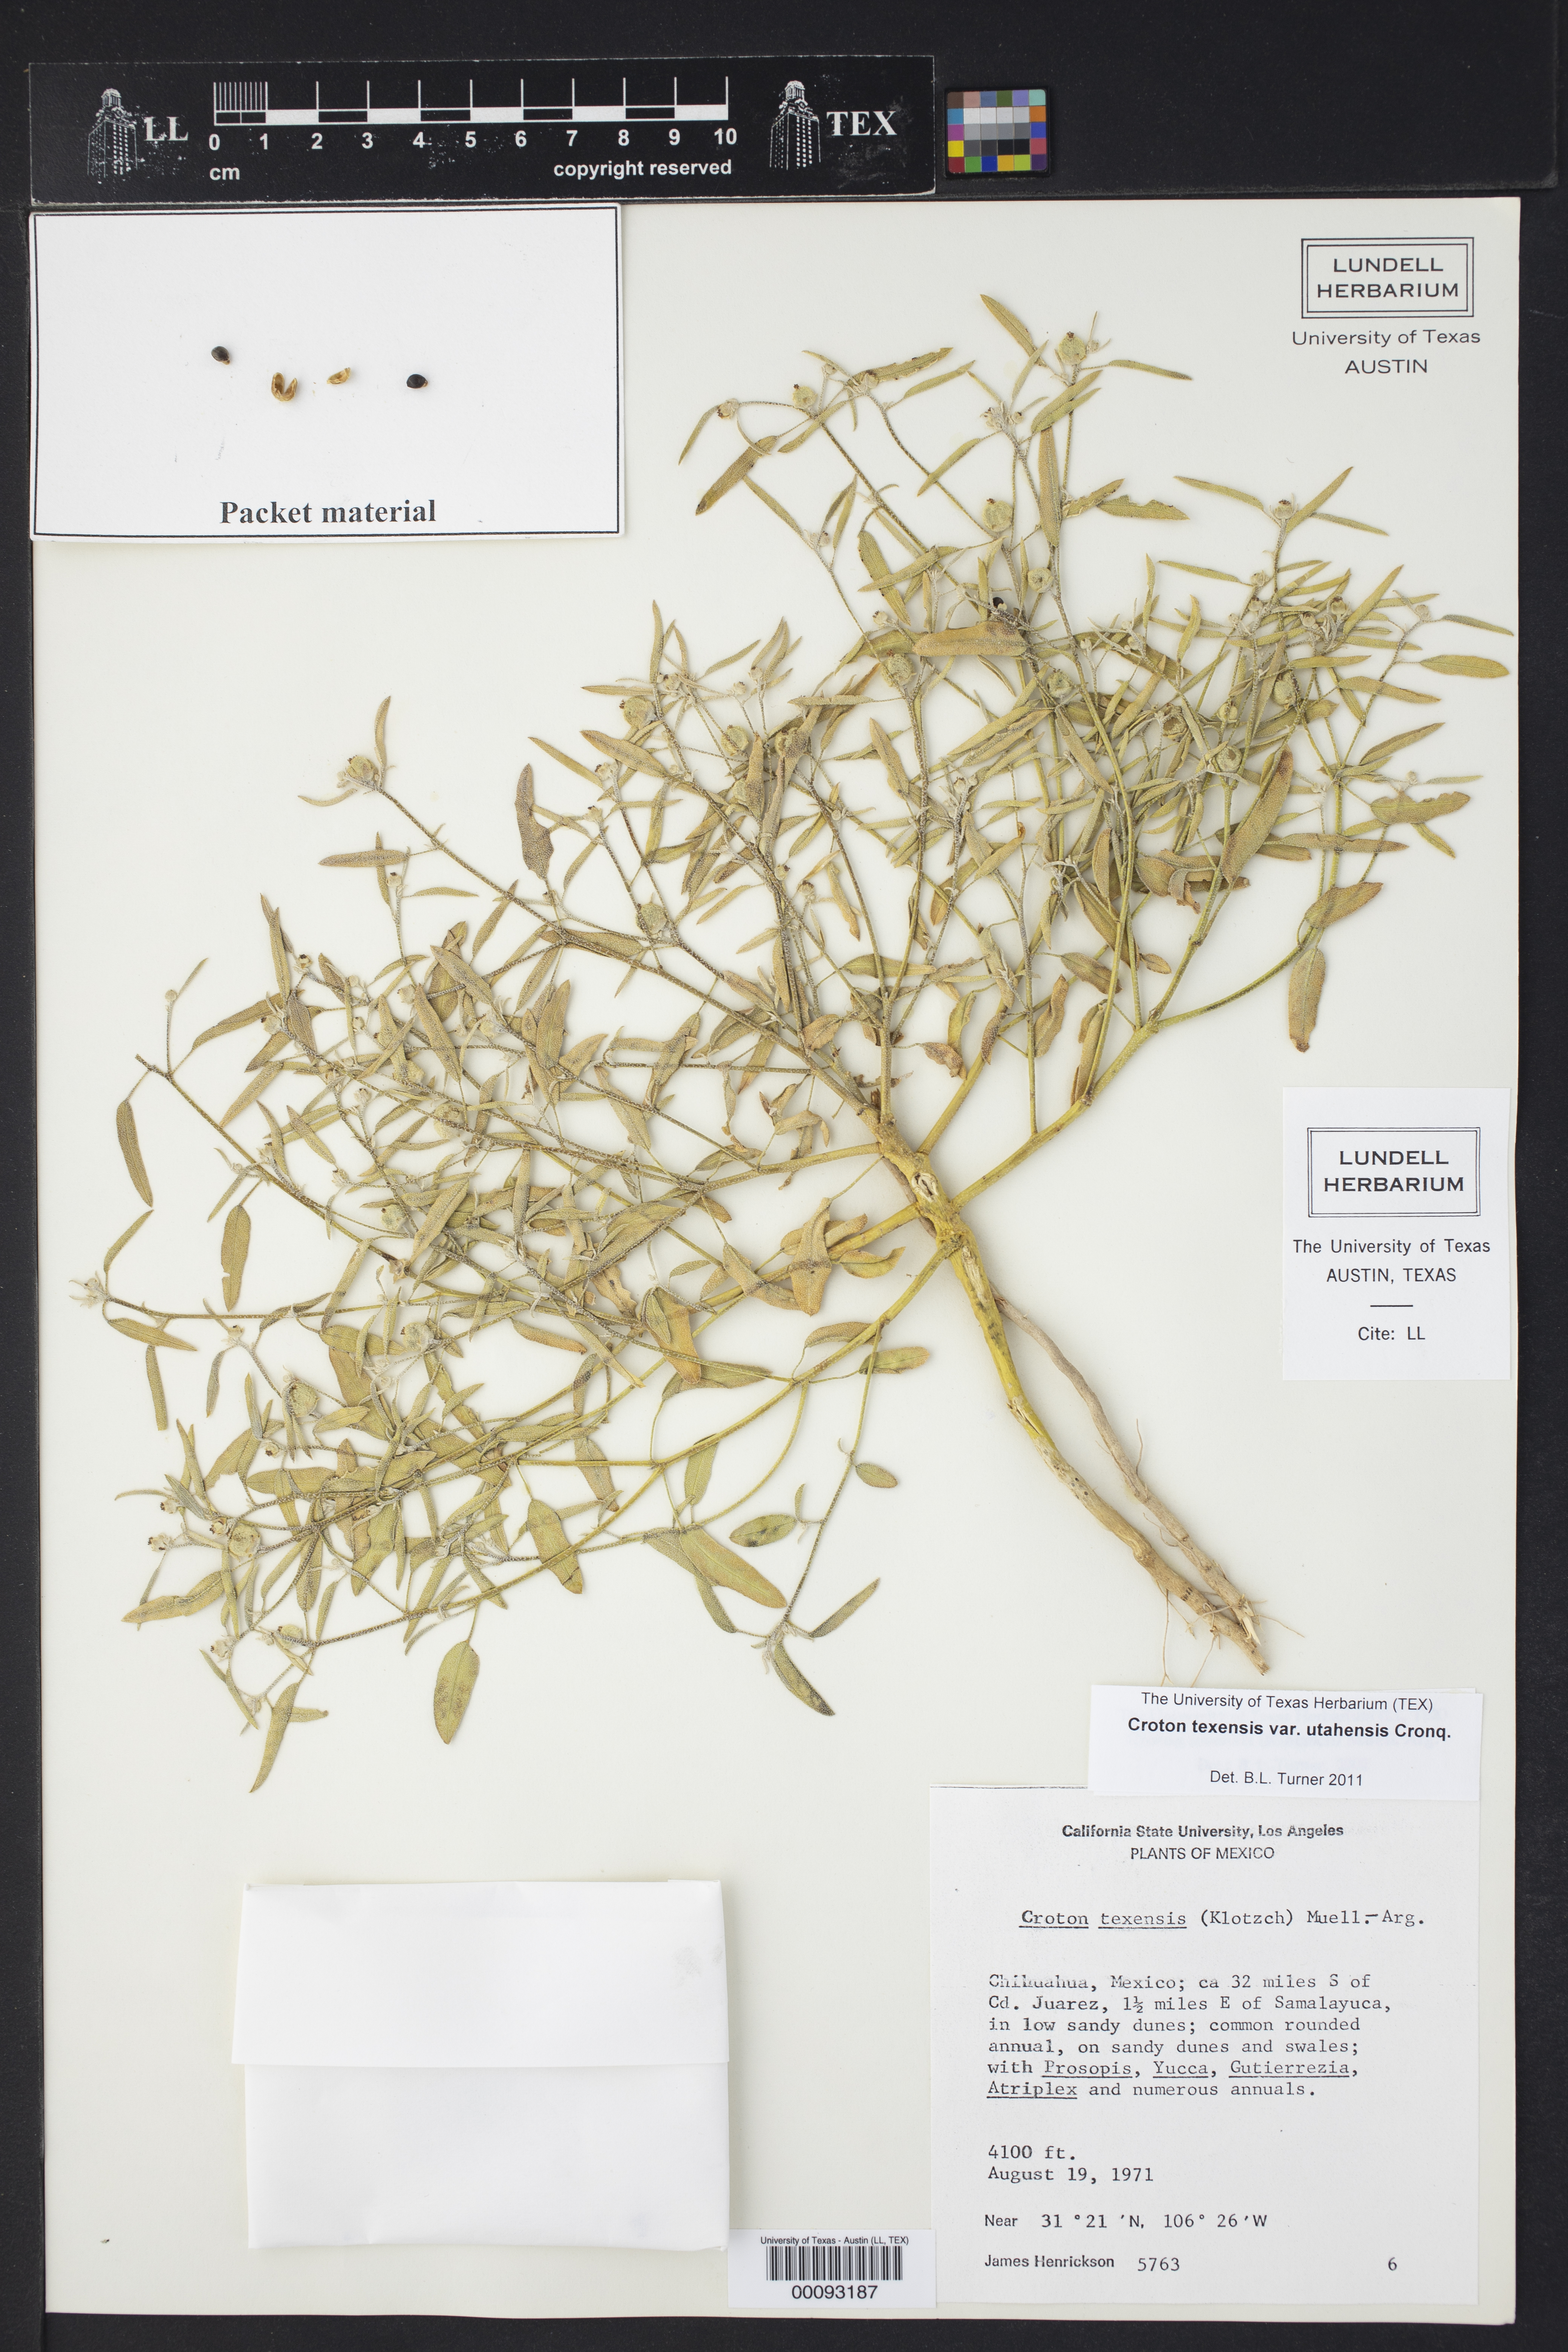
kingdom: Plantae
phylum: Tracheophyta
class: Magnoliopsida
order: Malpighiales
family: Euphorbiaceae
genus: Croton
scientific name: Croton texensis
